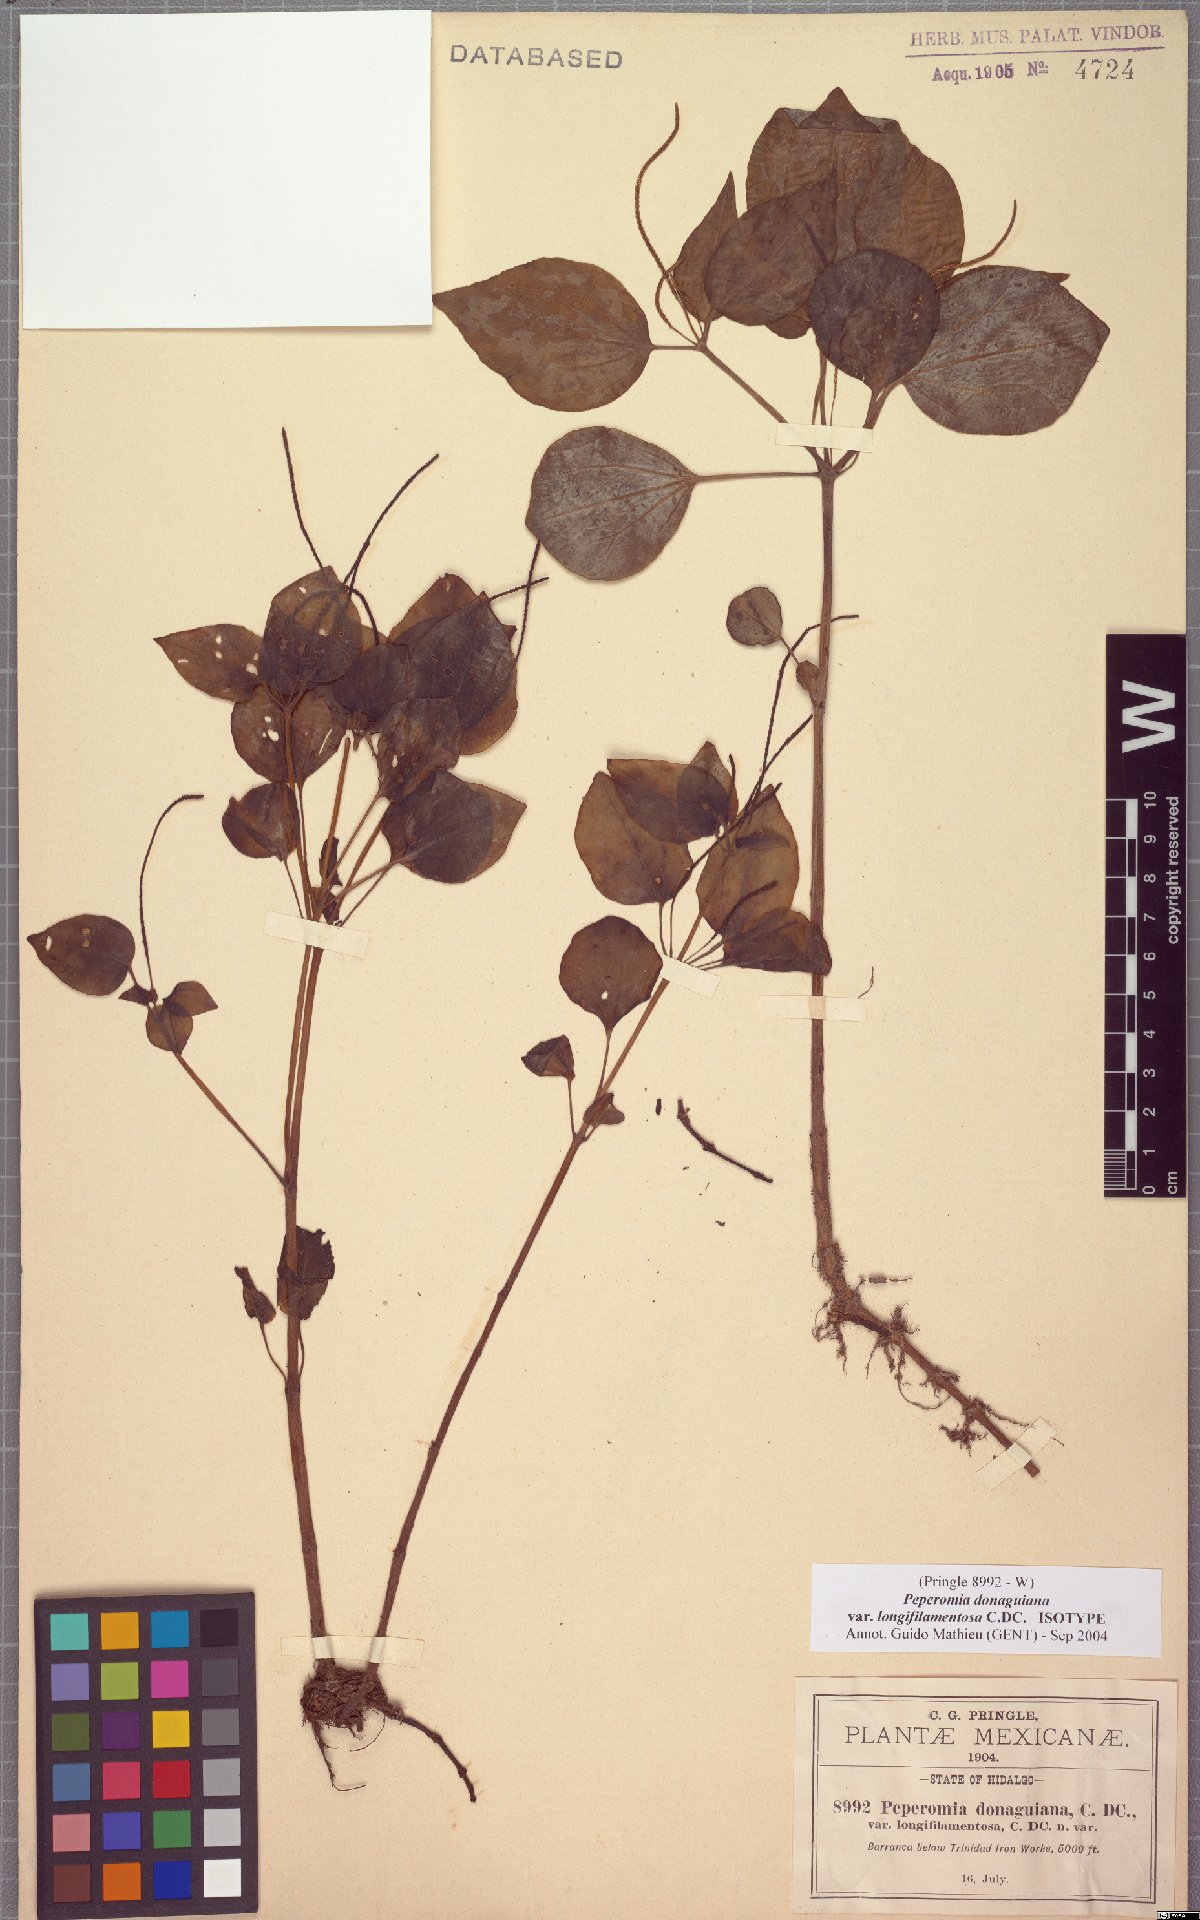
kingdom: Plantae
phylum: Tracheophyta
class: Magnoliopsida
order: Piperales
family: Piperaceae
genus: Peperomia
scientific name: Peperomia donaguiana
